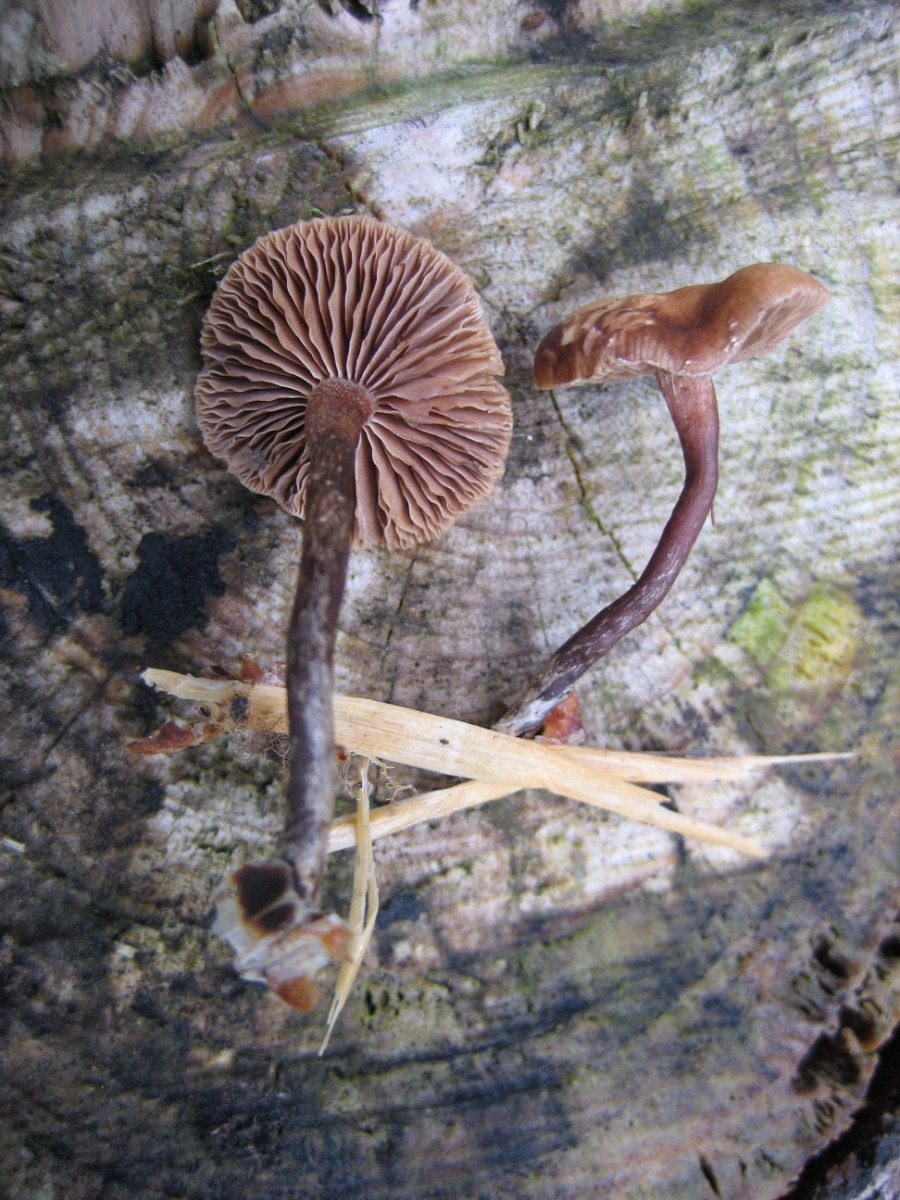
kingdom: Fungi
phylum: Basidiomycota
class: Agaricomycetes
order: Agaricales
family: Strophariaceae
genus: Deconica
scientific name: Deconica
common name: stråhat
